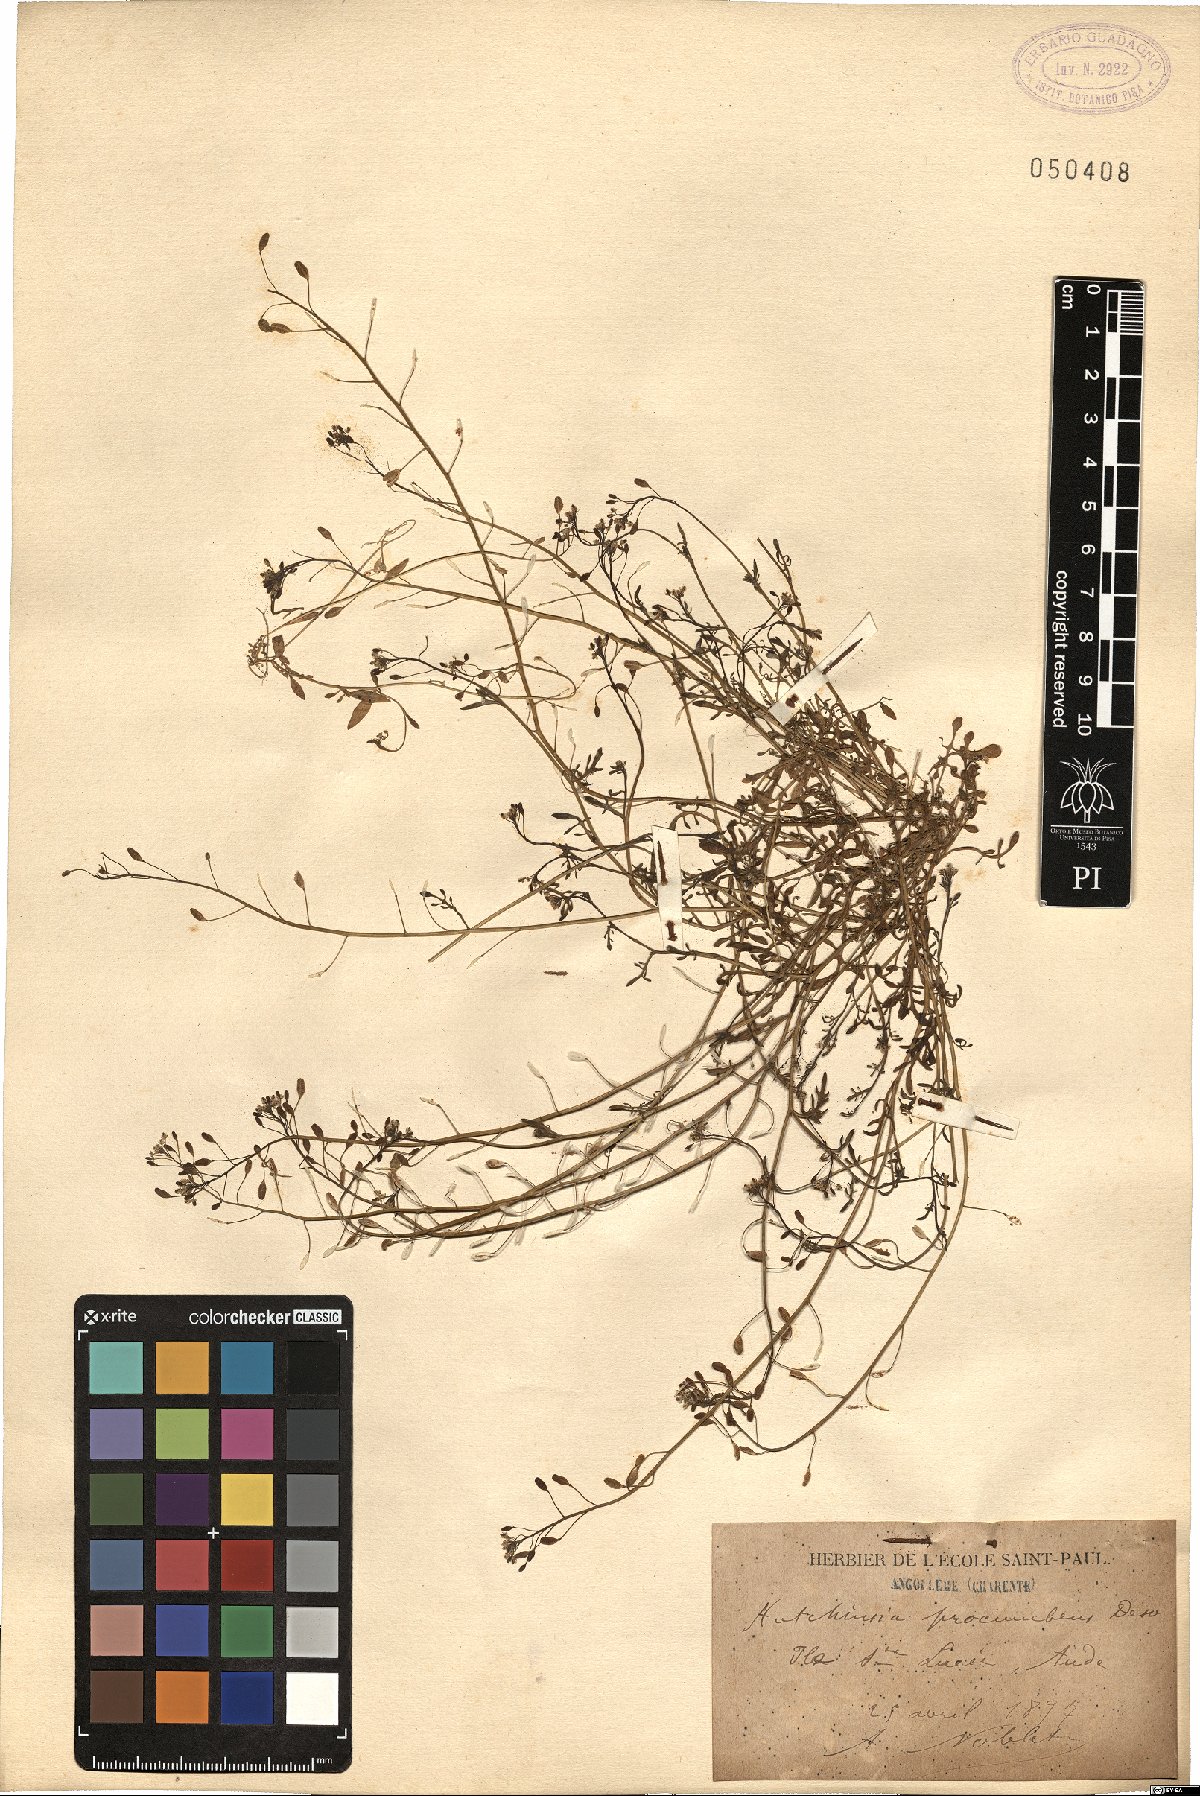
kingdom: Plantae
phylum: Tracheophyta
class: Magnoliopsida
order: Brassicales
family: Brassicaceae
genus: Hornungia
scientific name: Hornungia procumbens
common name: Oval purse
